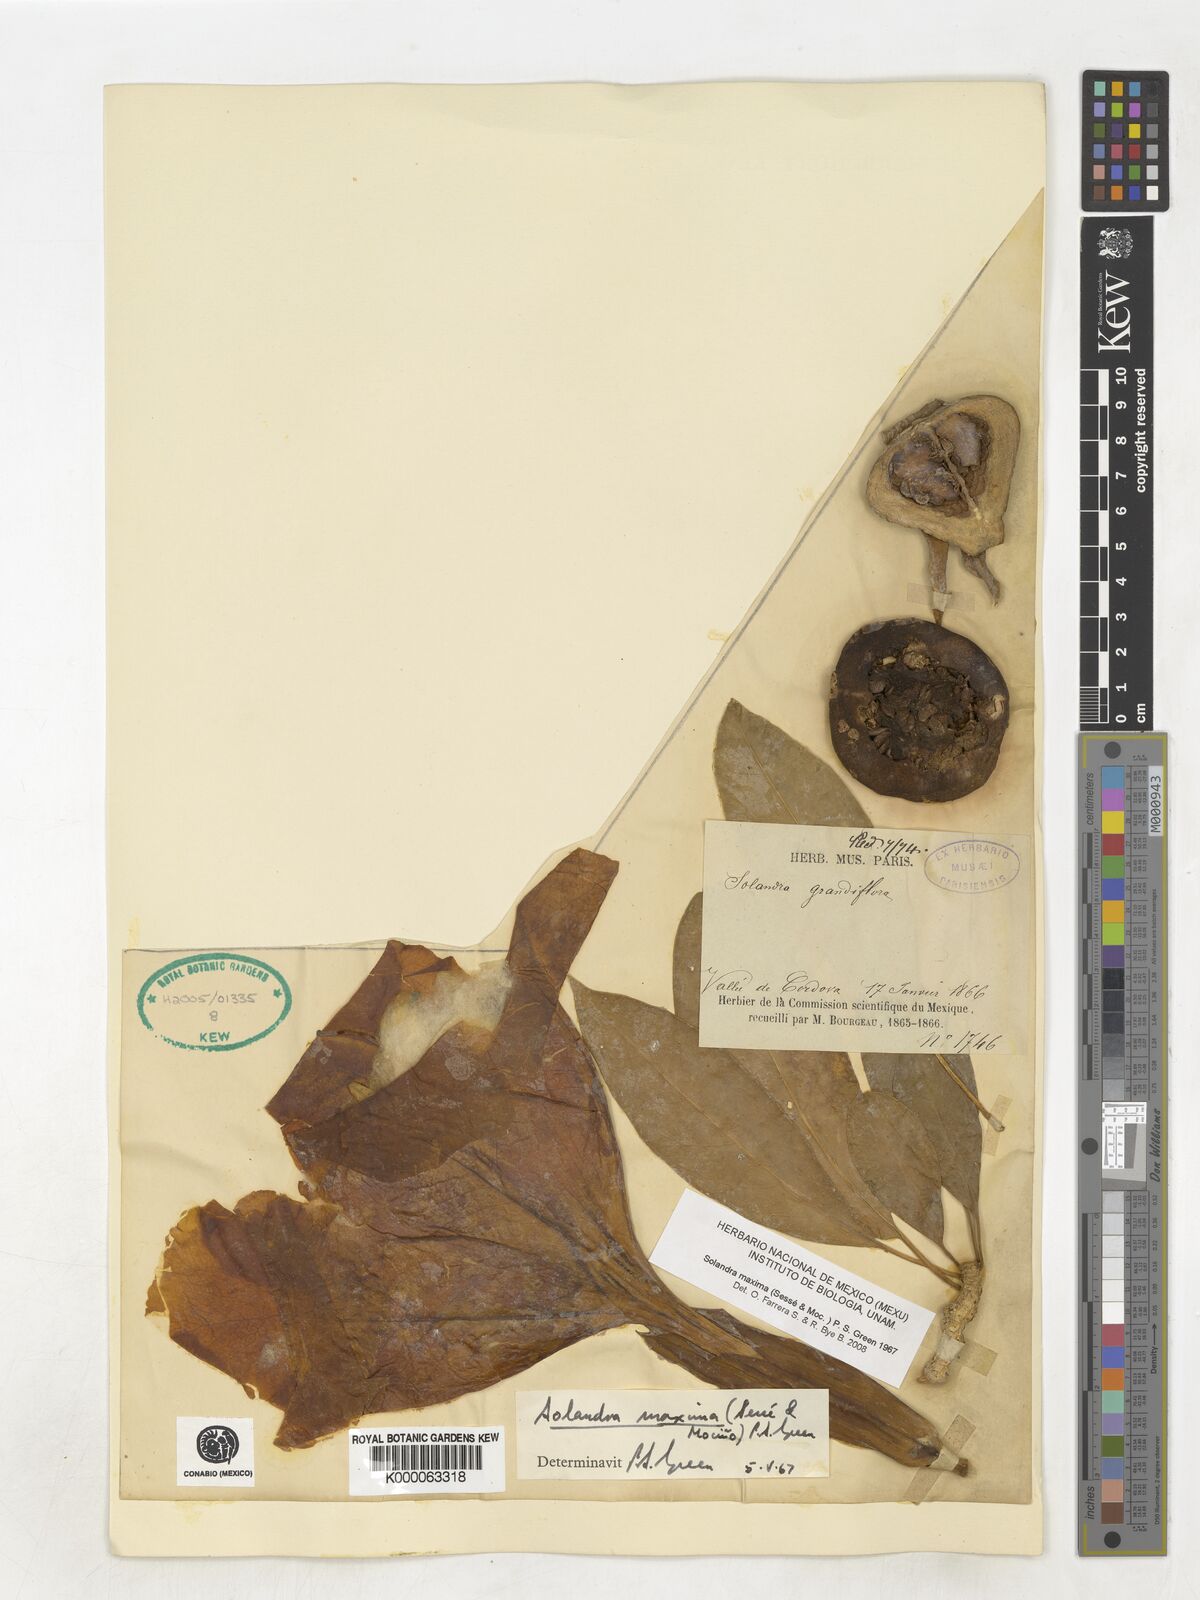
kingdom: Plantae
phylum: Tracheophyta
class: Magnoliopsida
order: Solanales
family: Solanaceae
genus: Solandra
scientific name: Solandra
